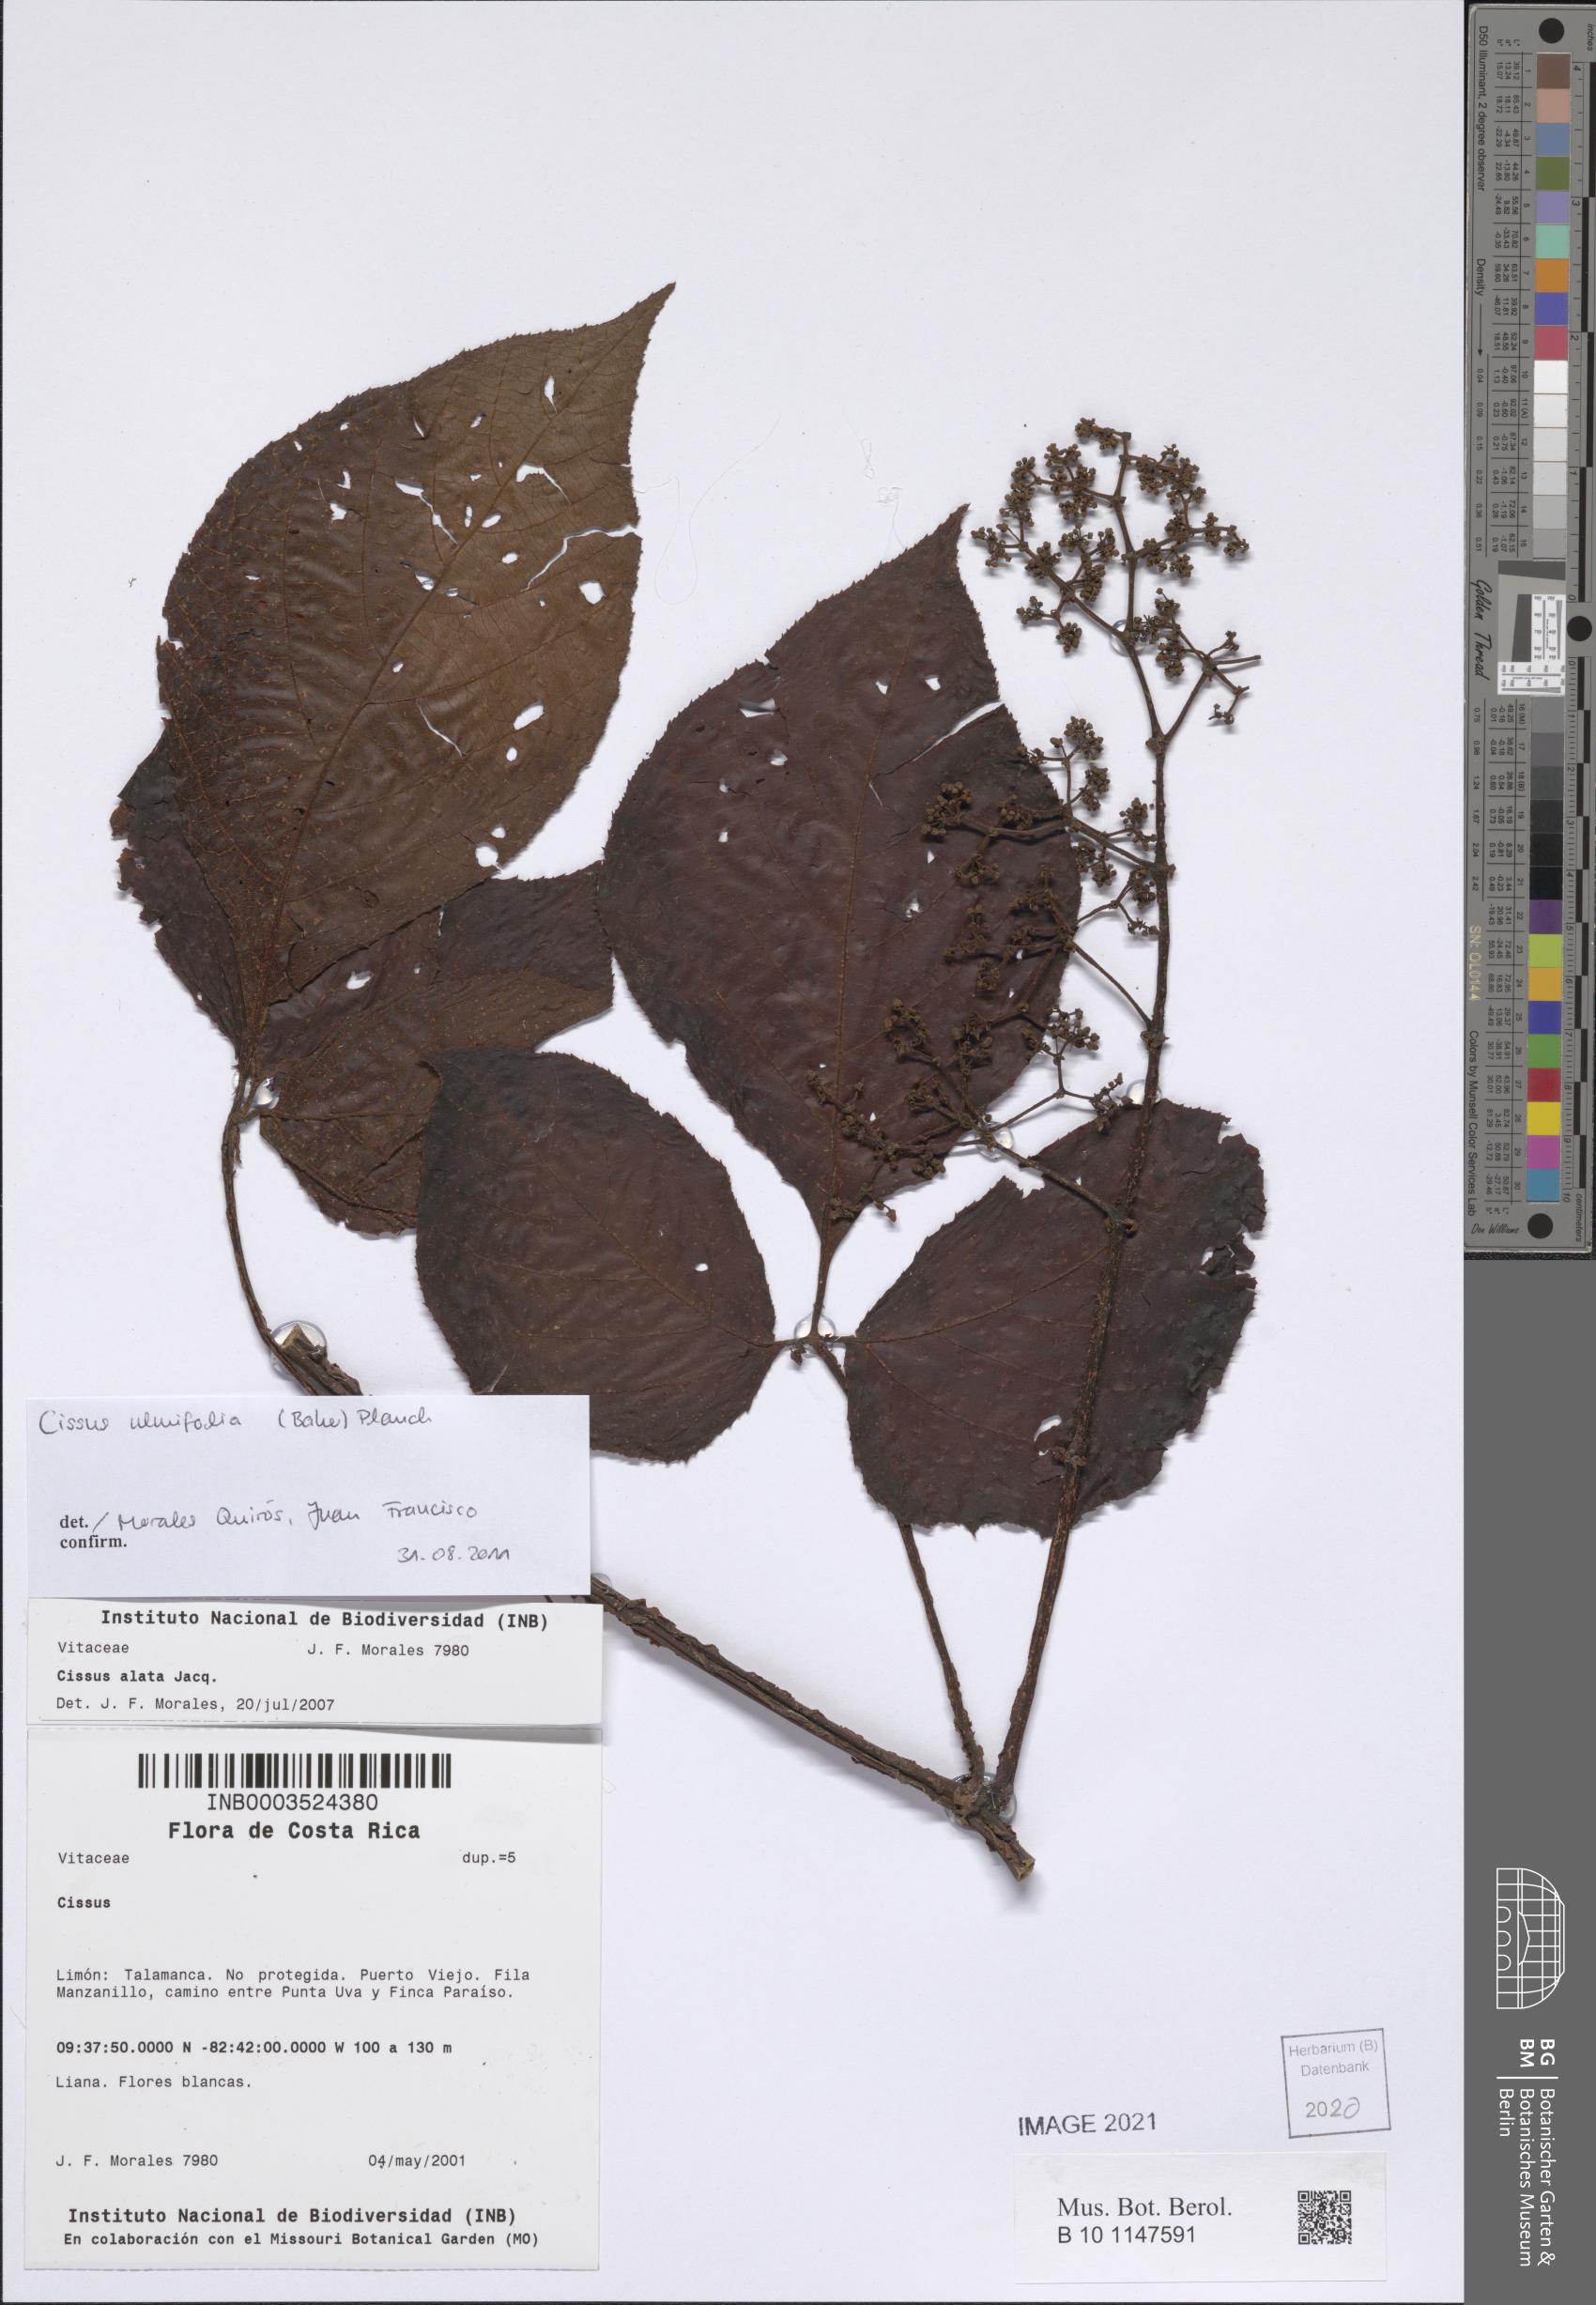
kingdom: Plantae
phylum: Tracheophyta
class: Magnoliopsida
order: Vitales
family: Vitaceae
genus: Cissus
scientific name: Cissus lombardiana
